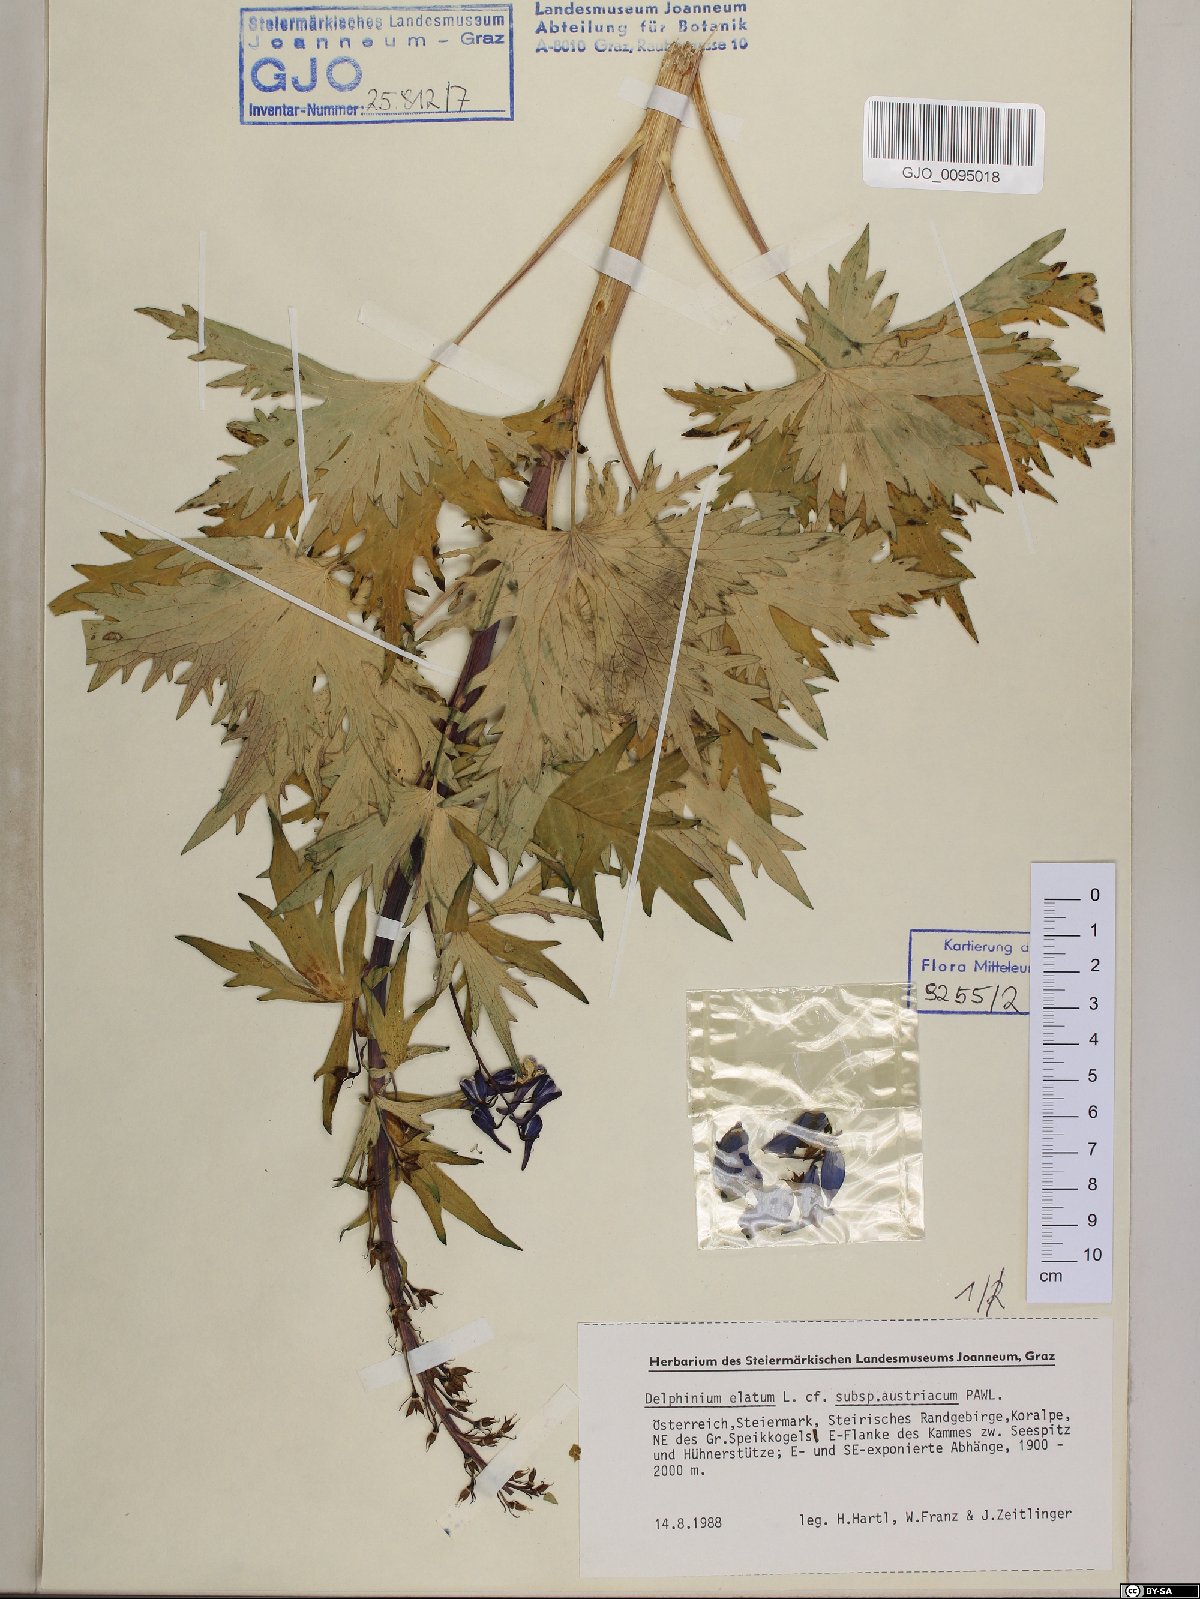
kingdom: Plantae
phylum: Tracheophyta
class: Magnoliopsida
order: Ranunculales
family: Ranunculaceae
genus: Delphinium
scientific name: Delphinium austriacum
